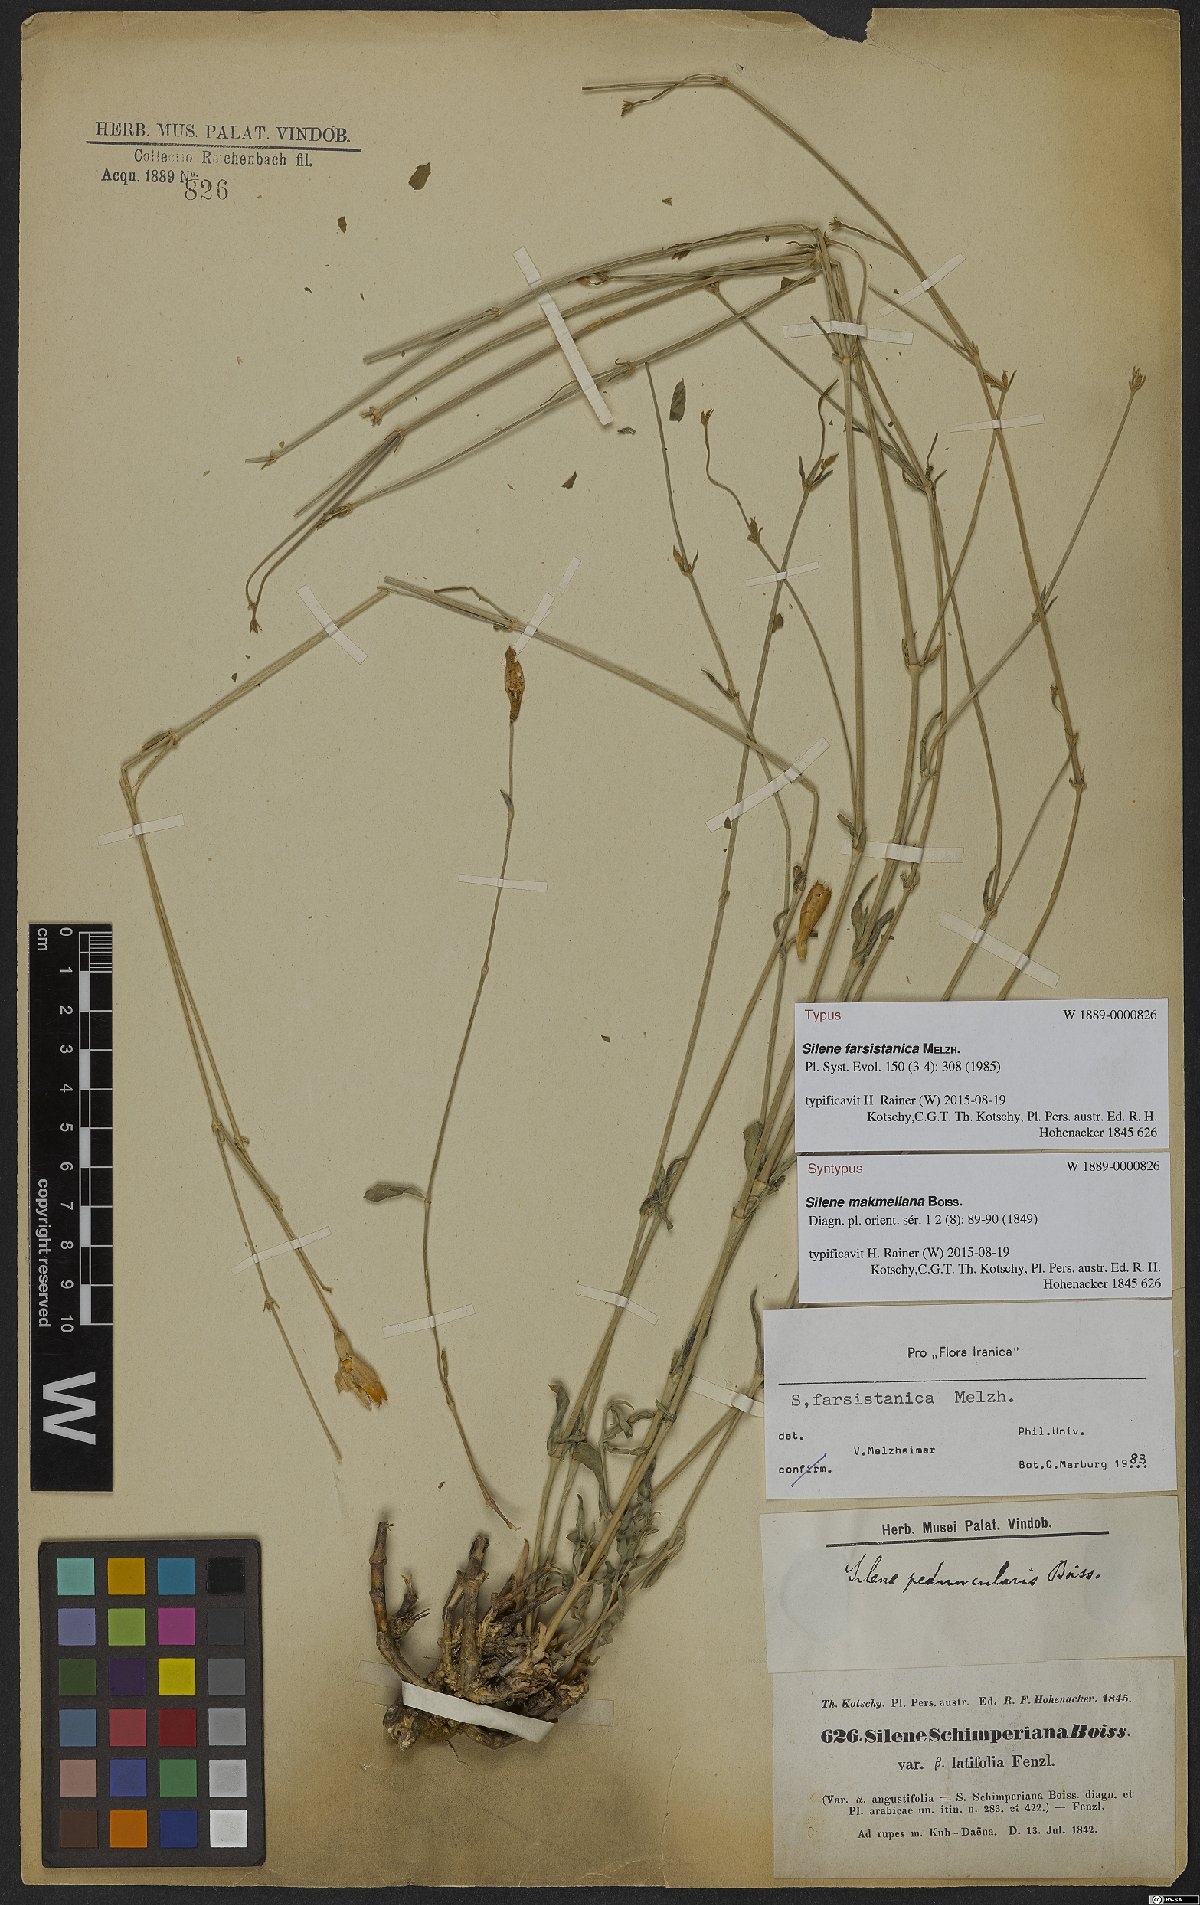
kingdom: Plantae
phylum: Tracheophyta
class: Magnoliopsida
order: Caryophyllales
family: Caryophyllaceae
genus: Silene
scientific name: Silene farsistanica
